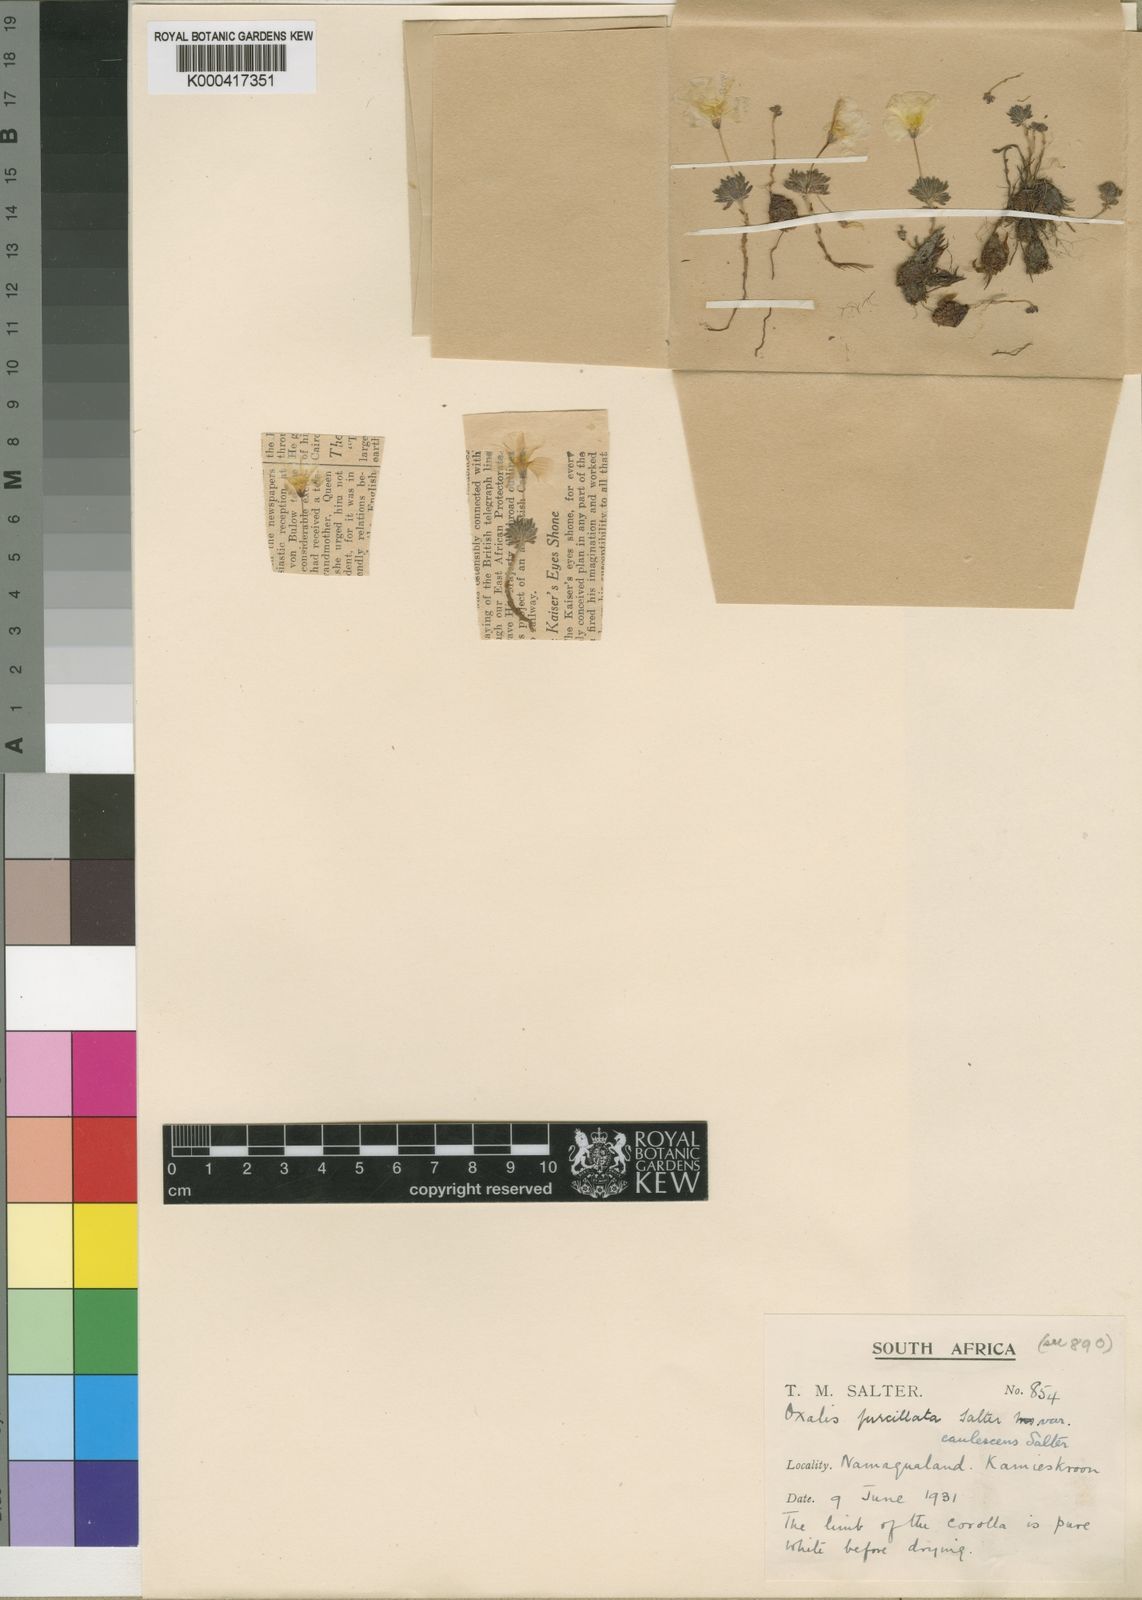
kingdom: Plantae
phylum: Tracheophyta
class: Magnoliopsida
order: Oxalidales
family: Oxalidaceae
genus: Oxalis
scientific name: Oxalis furcillata
